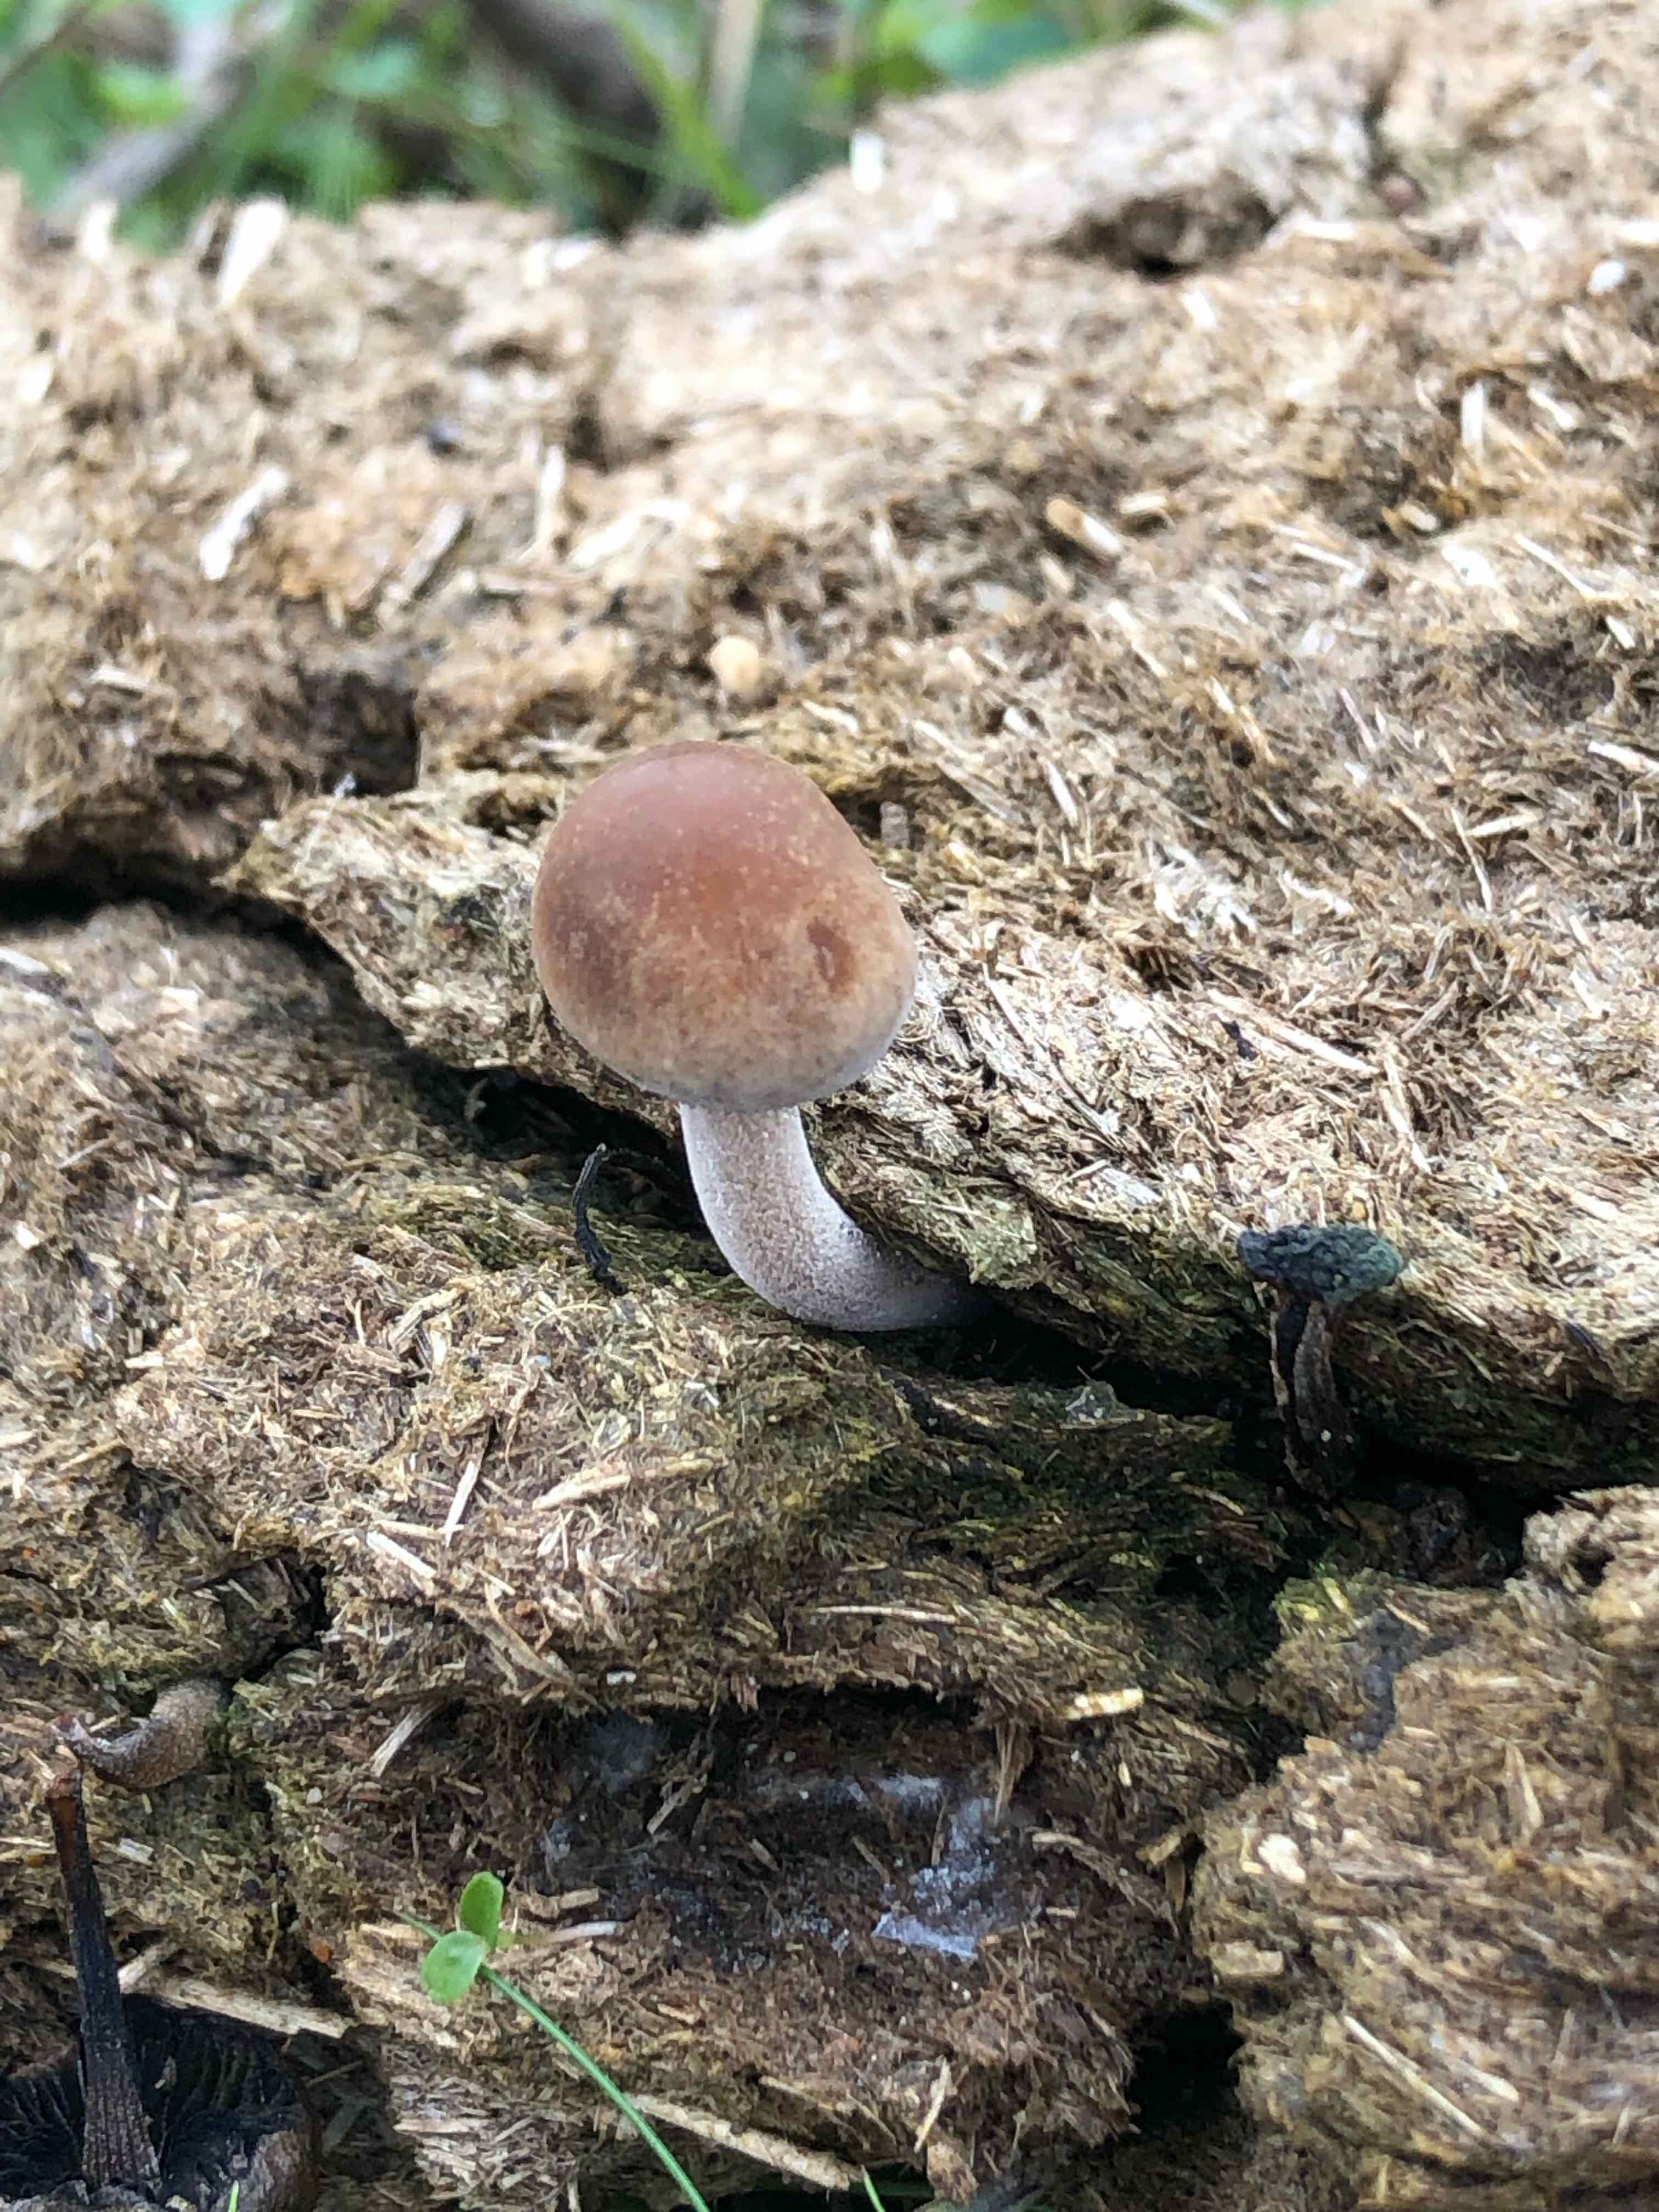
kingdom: Fungi
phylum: Basidiomycota
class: Agaricomycetes
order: Agaricales
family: Bolbitiaceae
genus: Panaeolus
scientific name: Panaeolus
